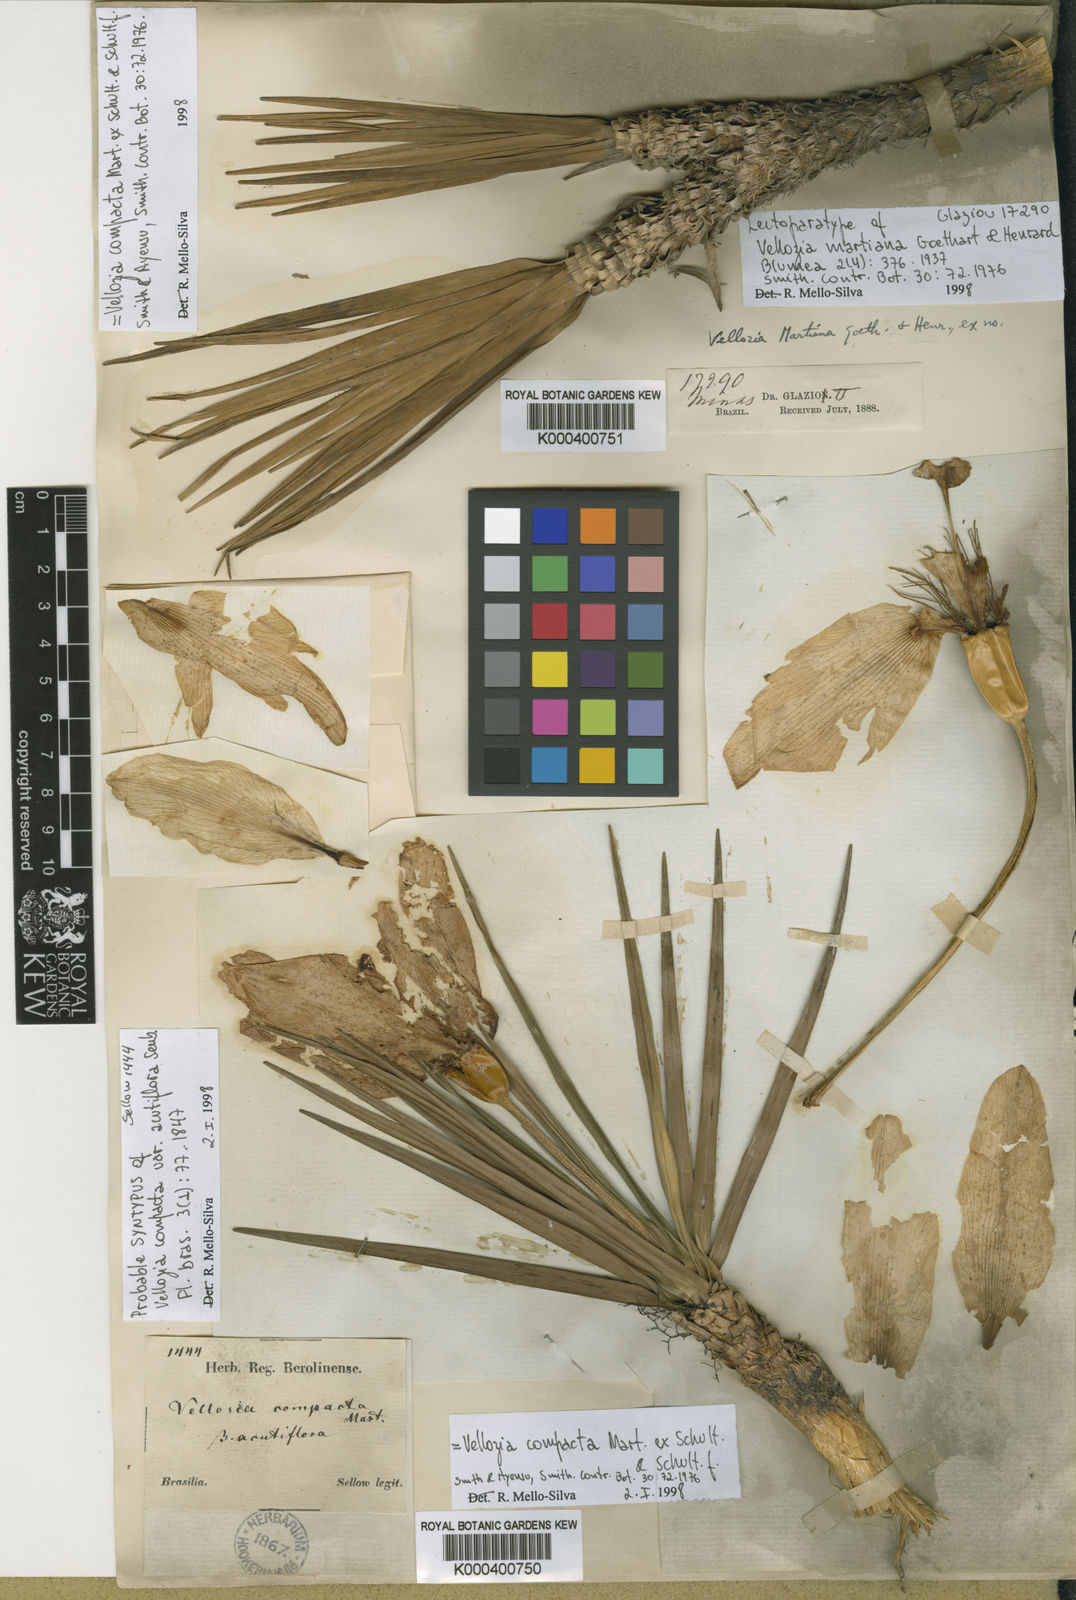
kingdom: Plantae
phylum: Tracheophyta
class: Liliopsida
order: Pandanales
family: Velloziaceae
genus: Vellozia
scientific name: Vellozia compacta
